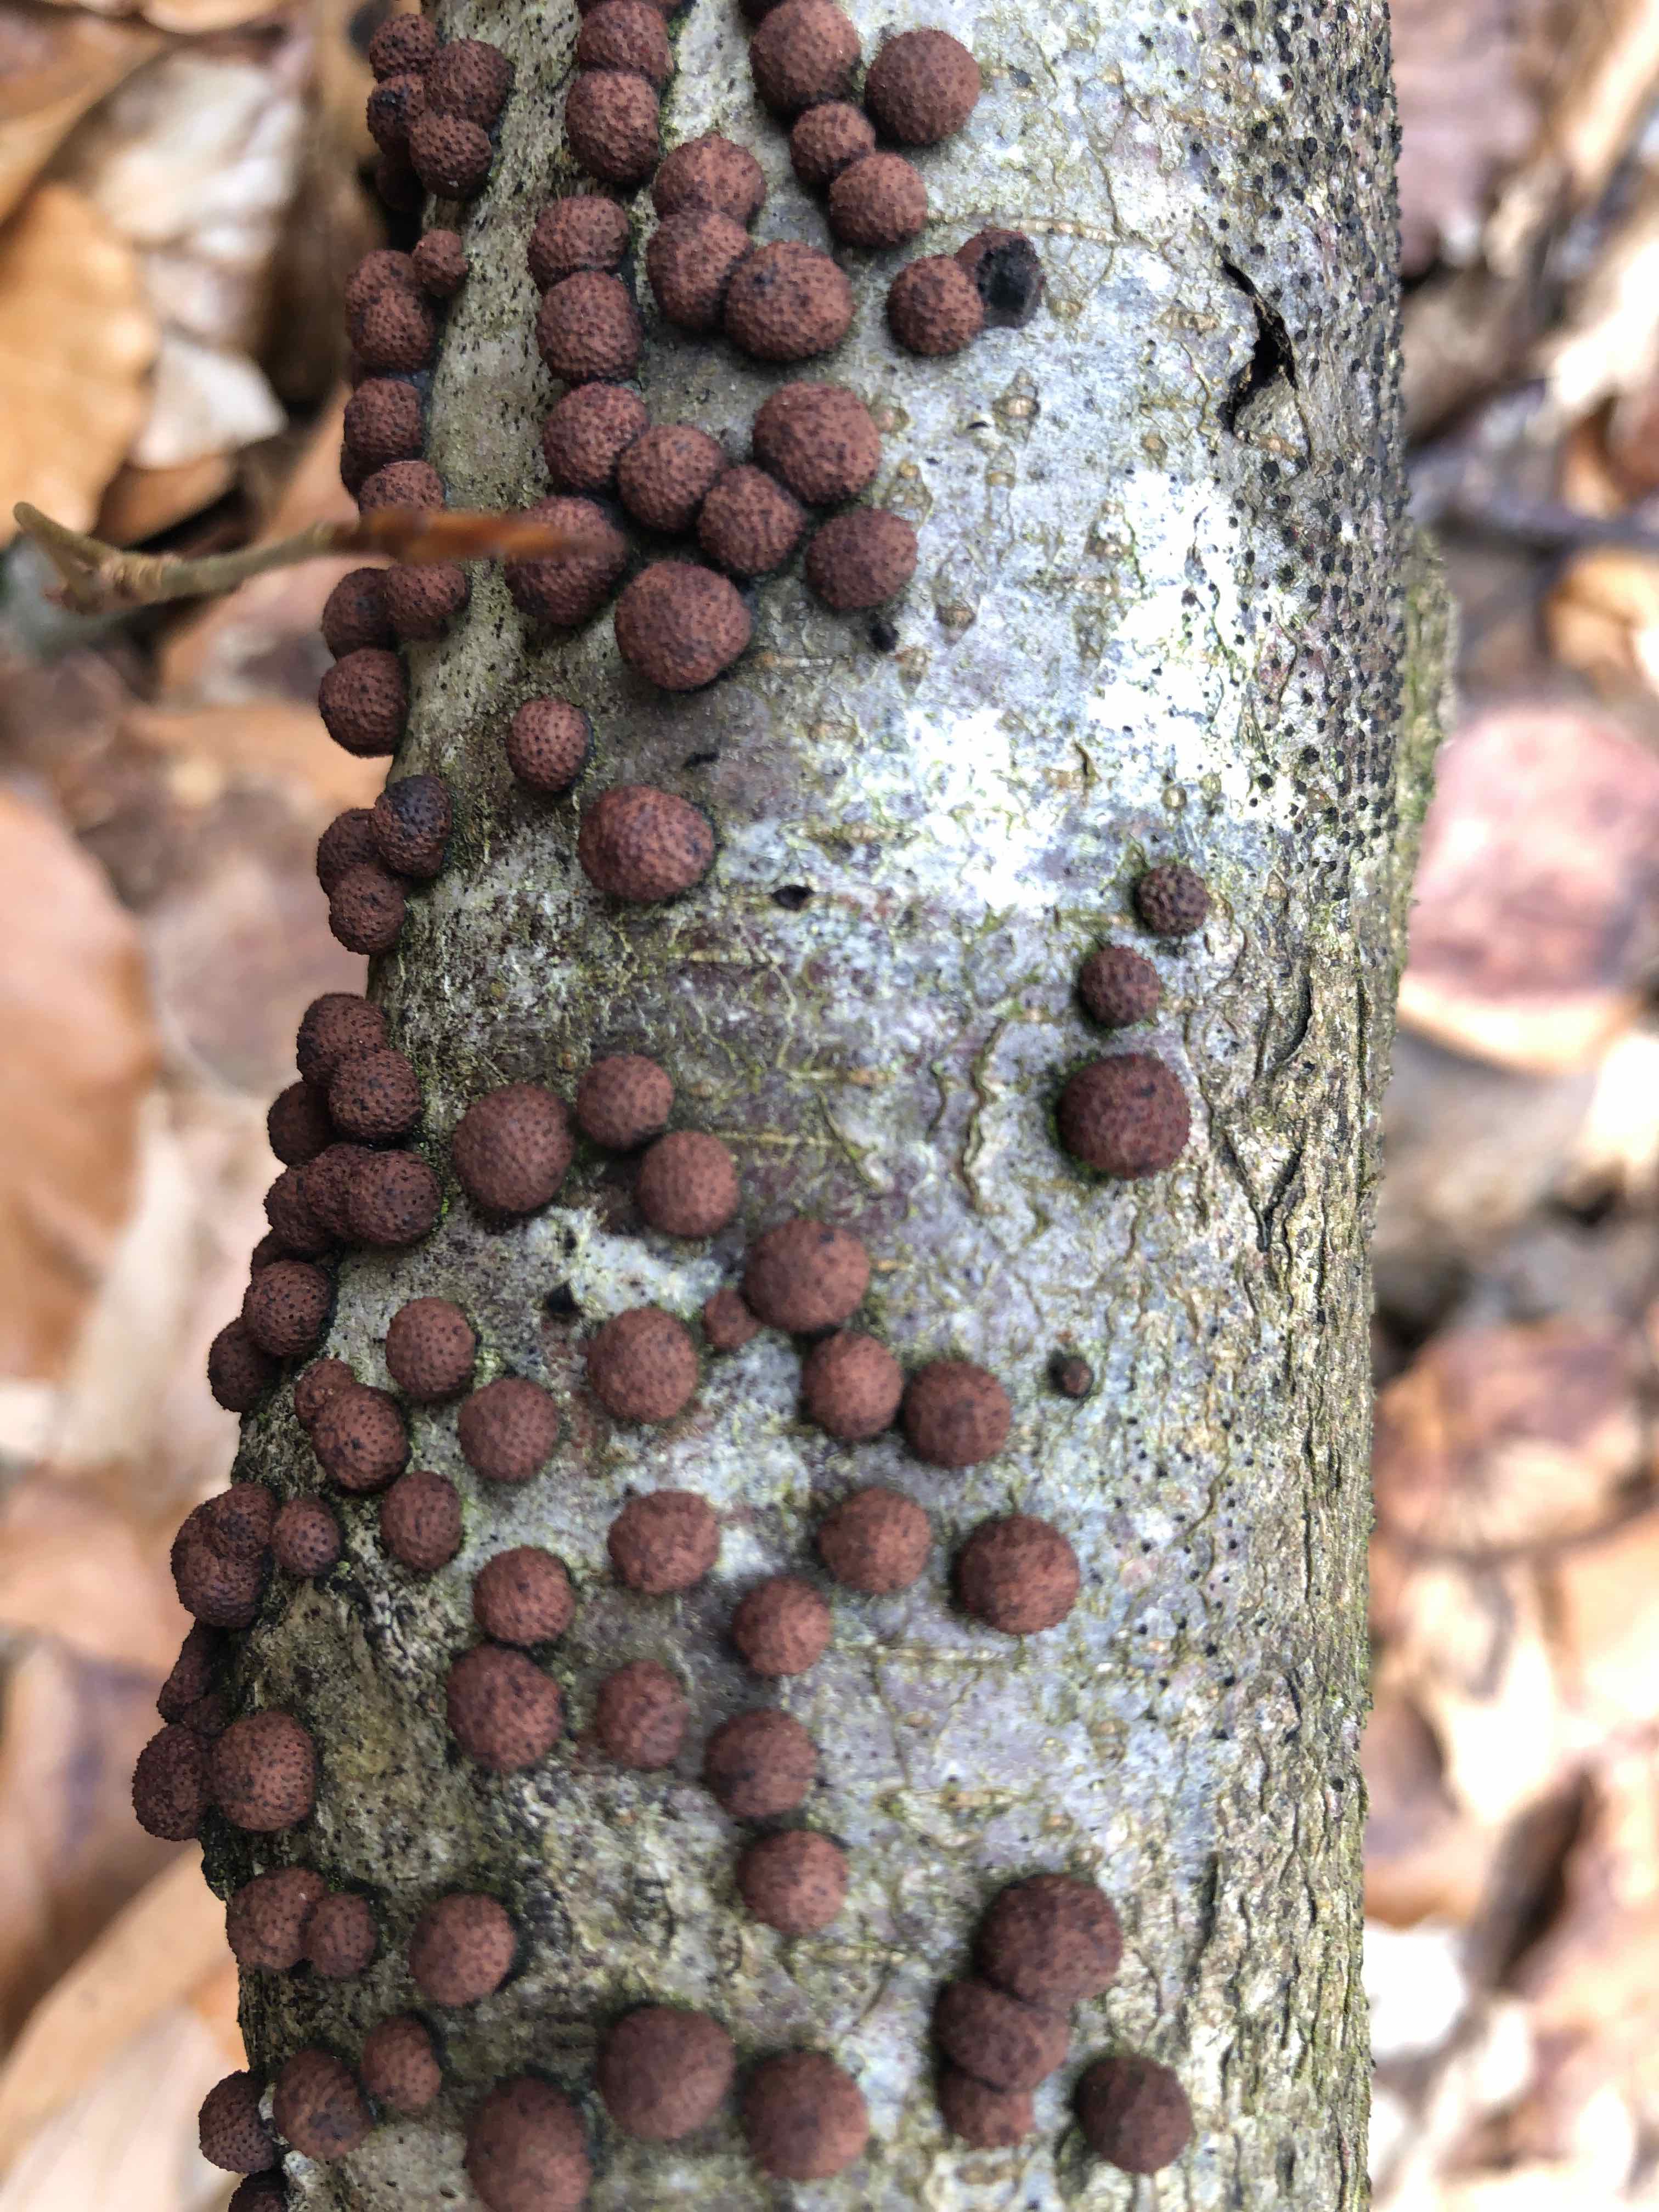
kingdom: Fungi
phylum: Ascomycota
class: Sordariomycetes
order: Xylariales
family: Hypoxylaceae
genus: Hypoxylon
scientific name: Hypoxylon fragiforme
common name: kuljordbær
